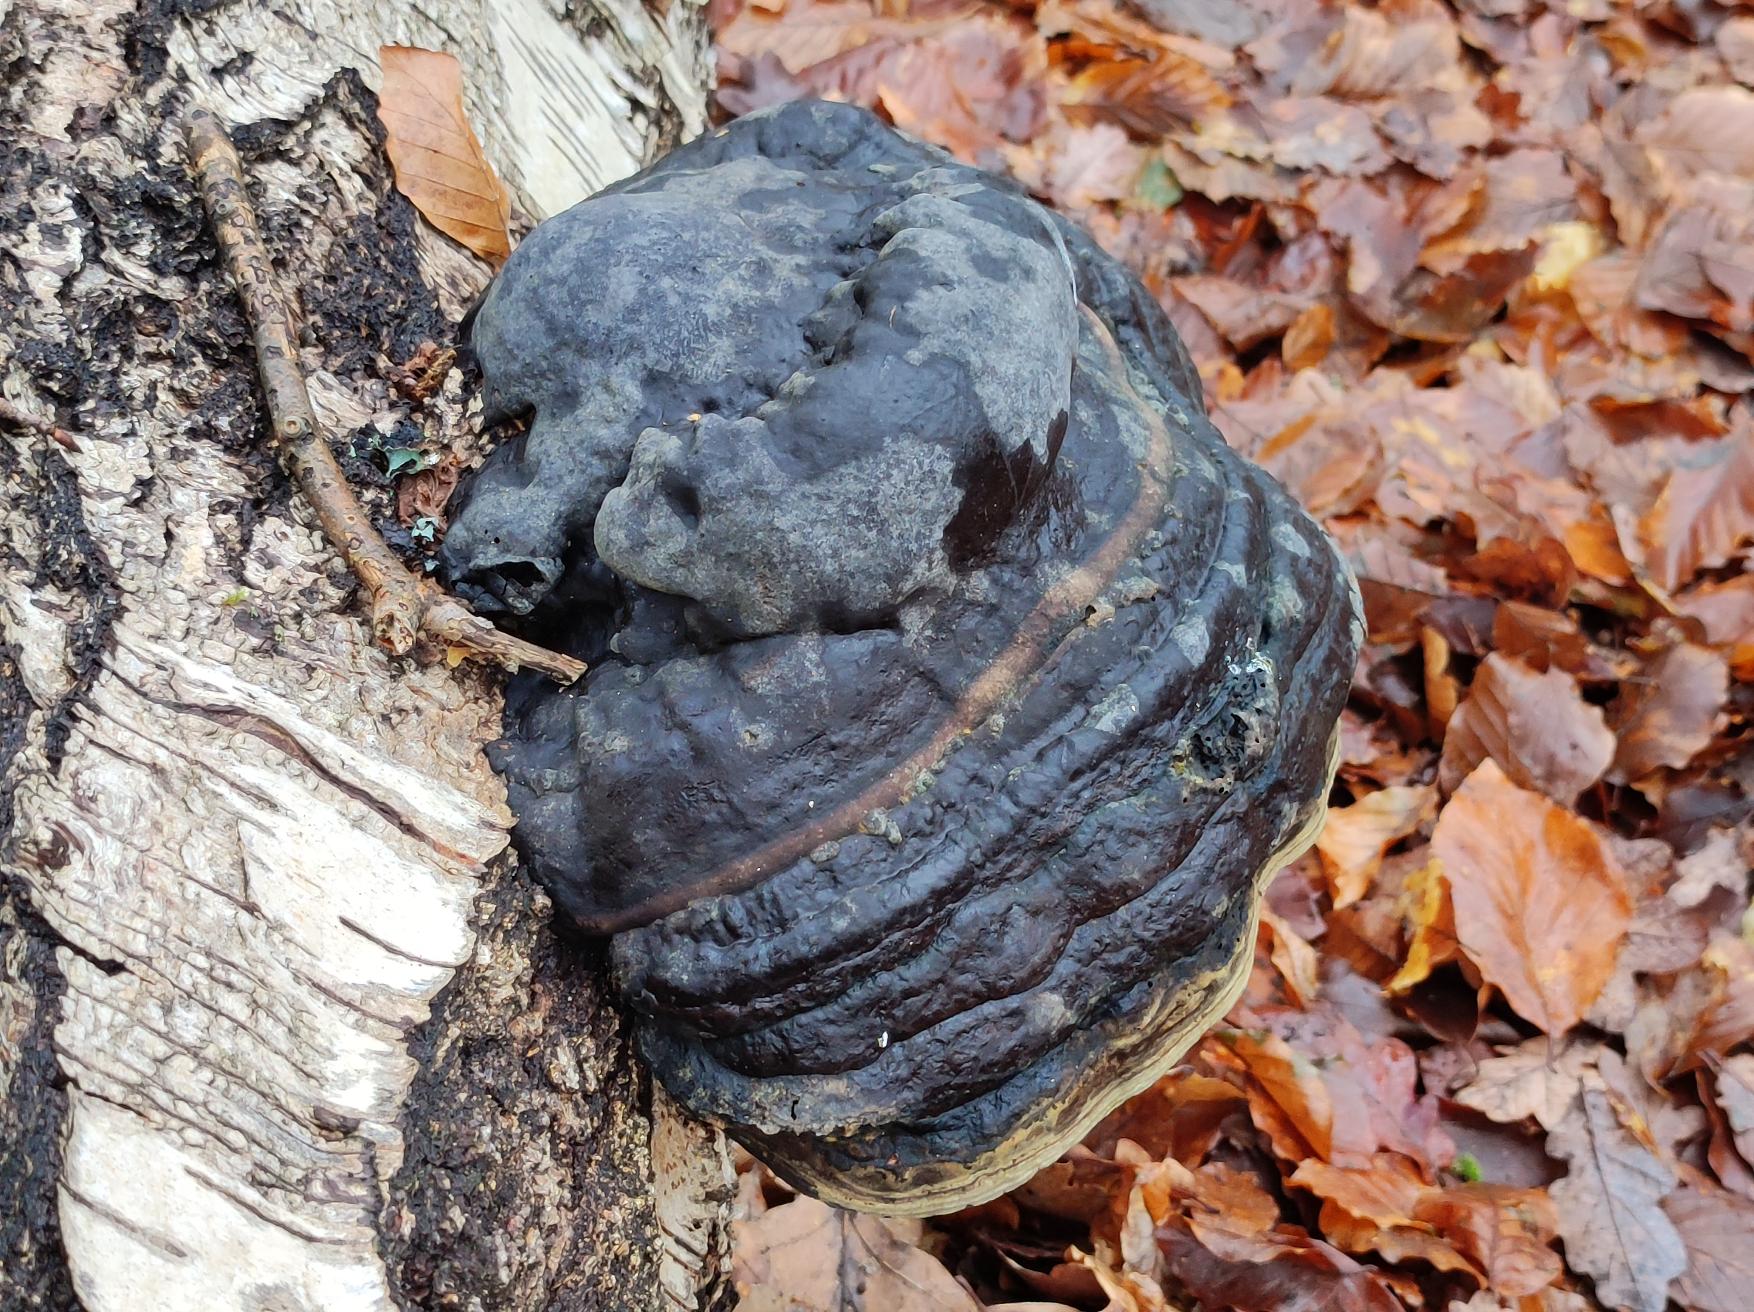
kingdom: Fungi
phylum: Basidiomycota
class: Agaricomycetes
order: Polyporales
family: Polyporaceae
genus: Fomes
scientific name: Fomes fomentarius
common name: Tøndersvamp
